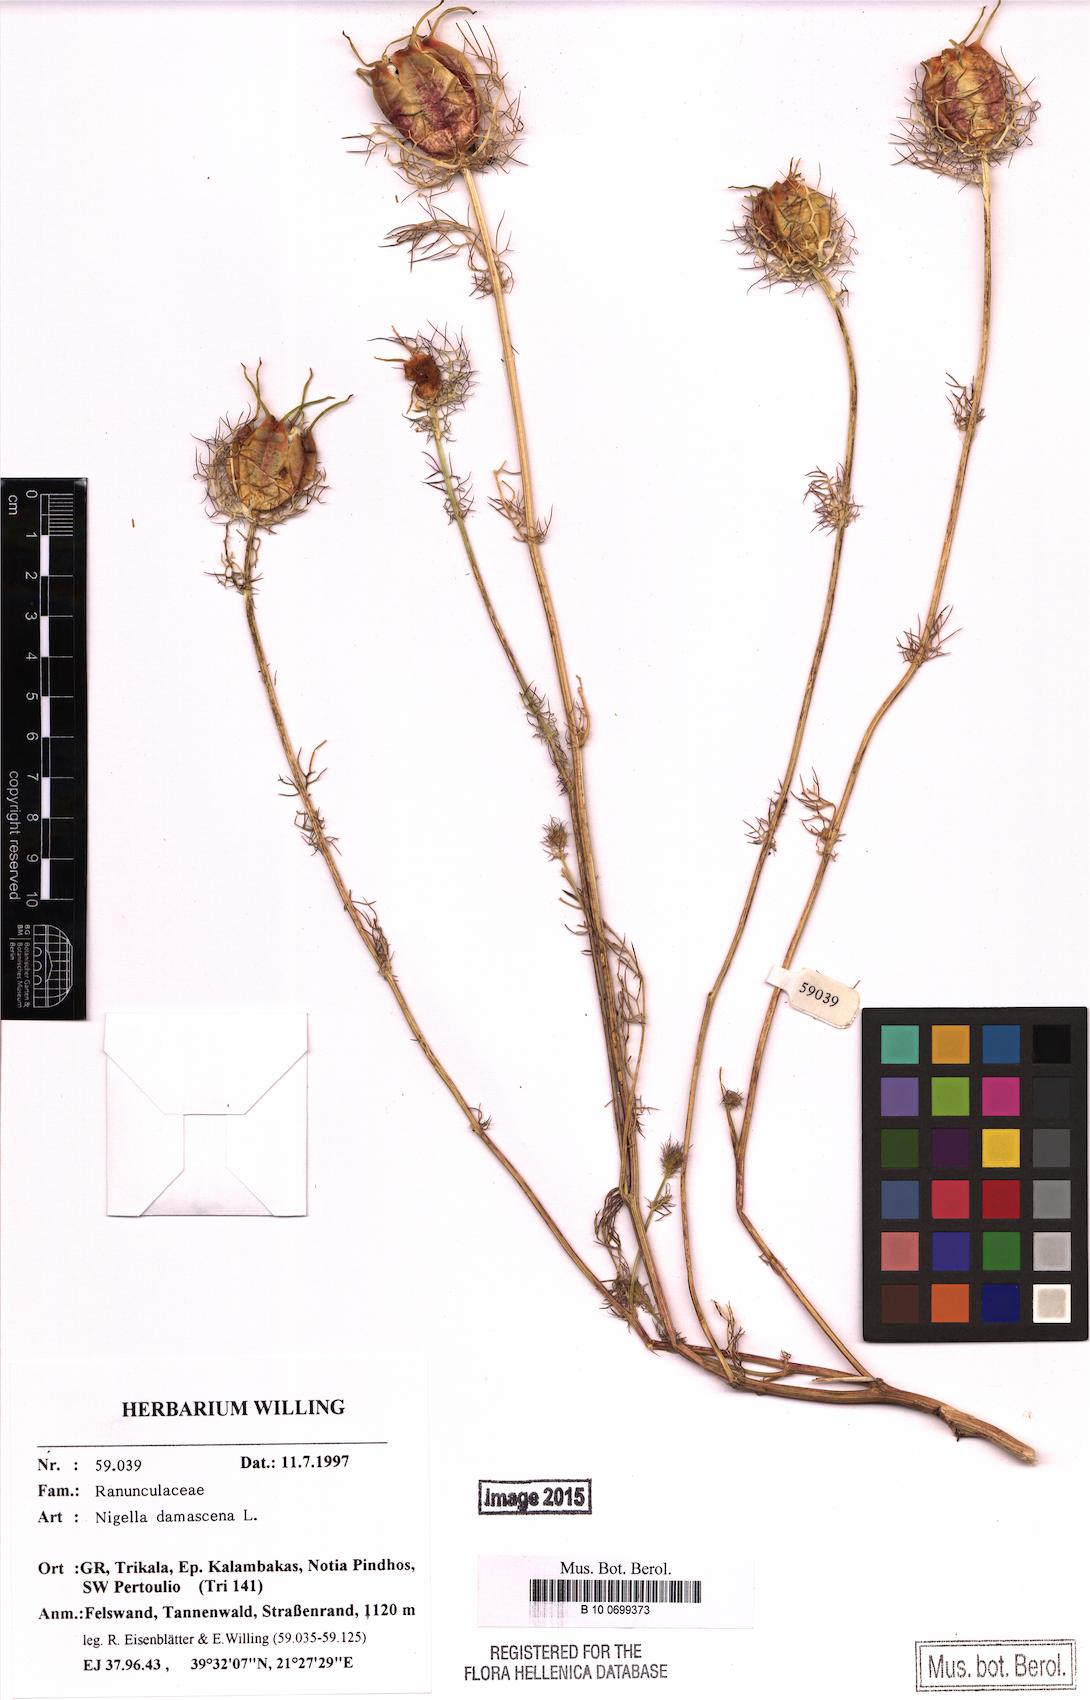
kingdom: Plantae
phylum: Tracheophyta
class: Magnoliopsida
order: Ranunculales
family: Ranunculaceae
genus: Nigella
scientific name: Nigella damascena
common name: Love-in-a-mist
